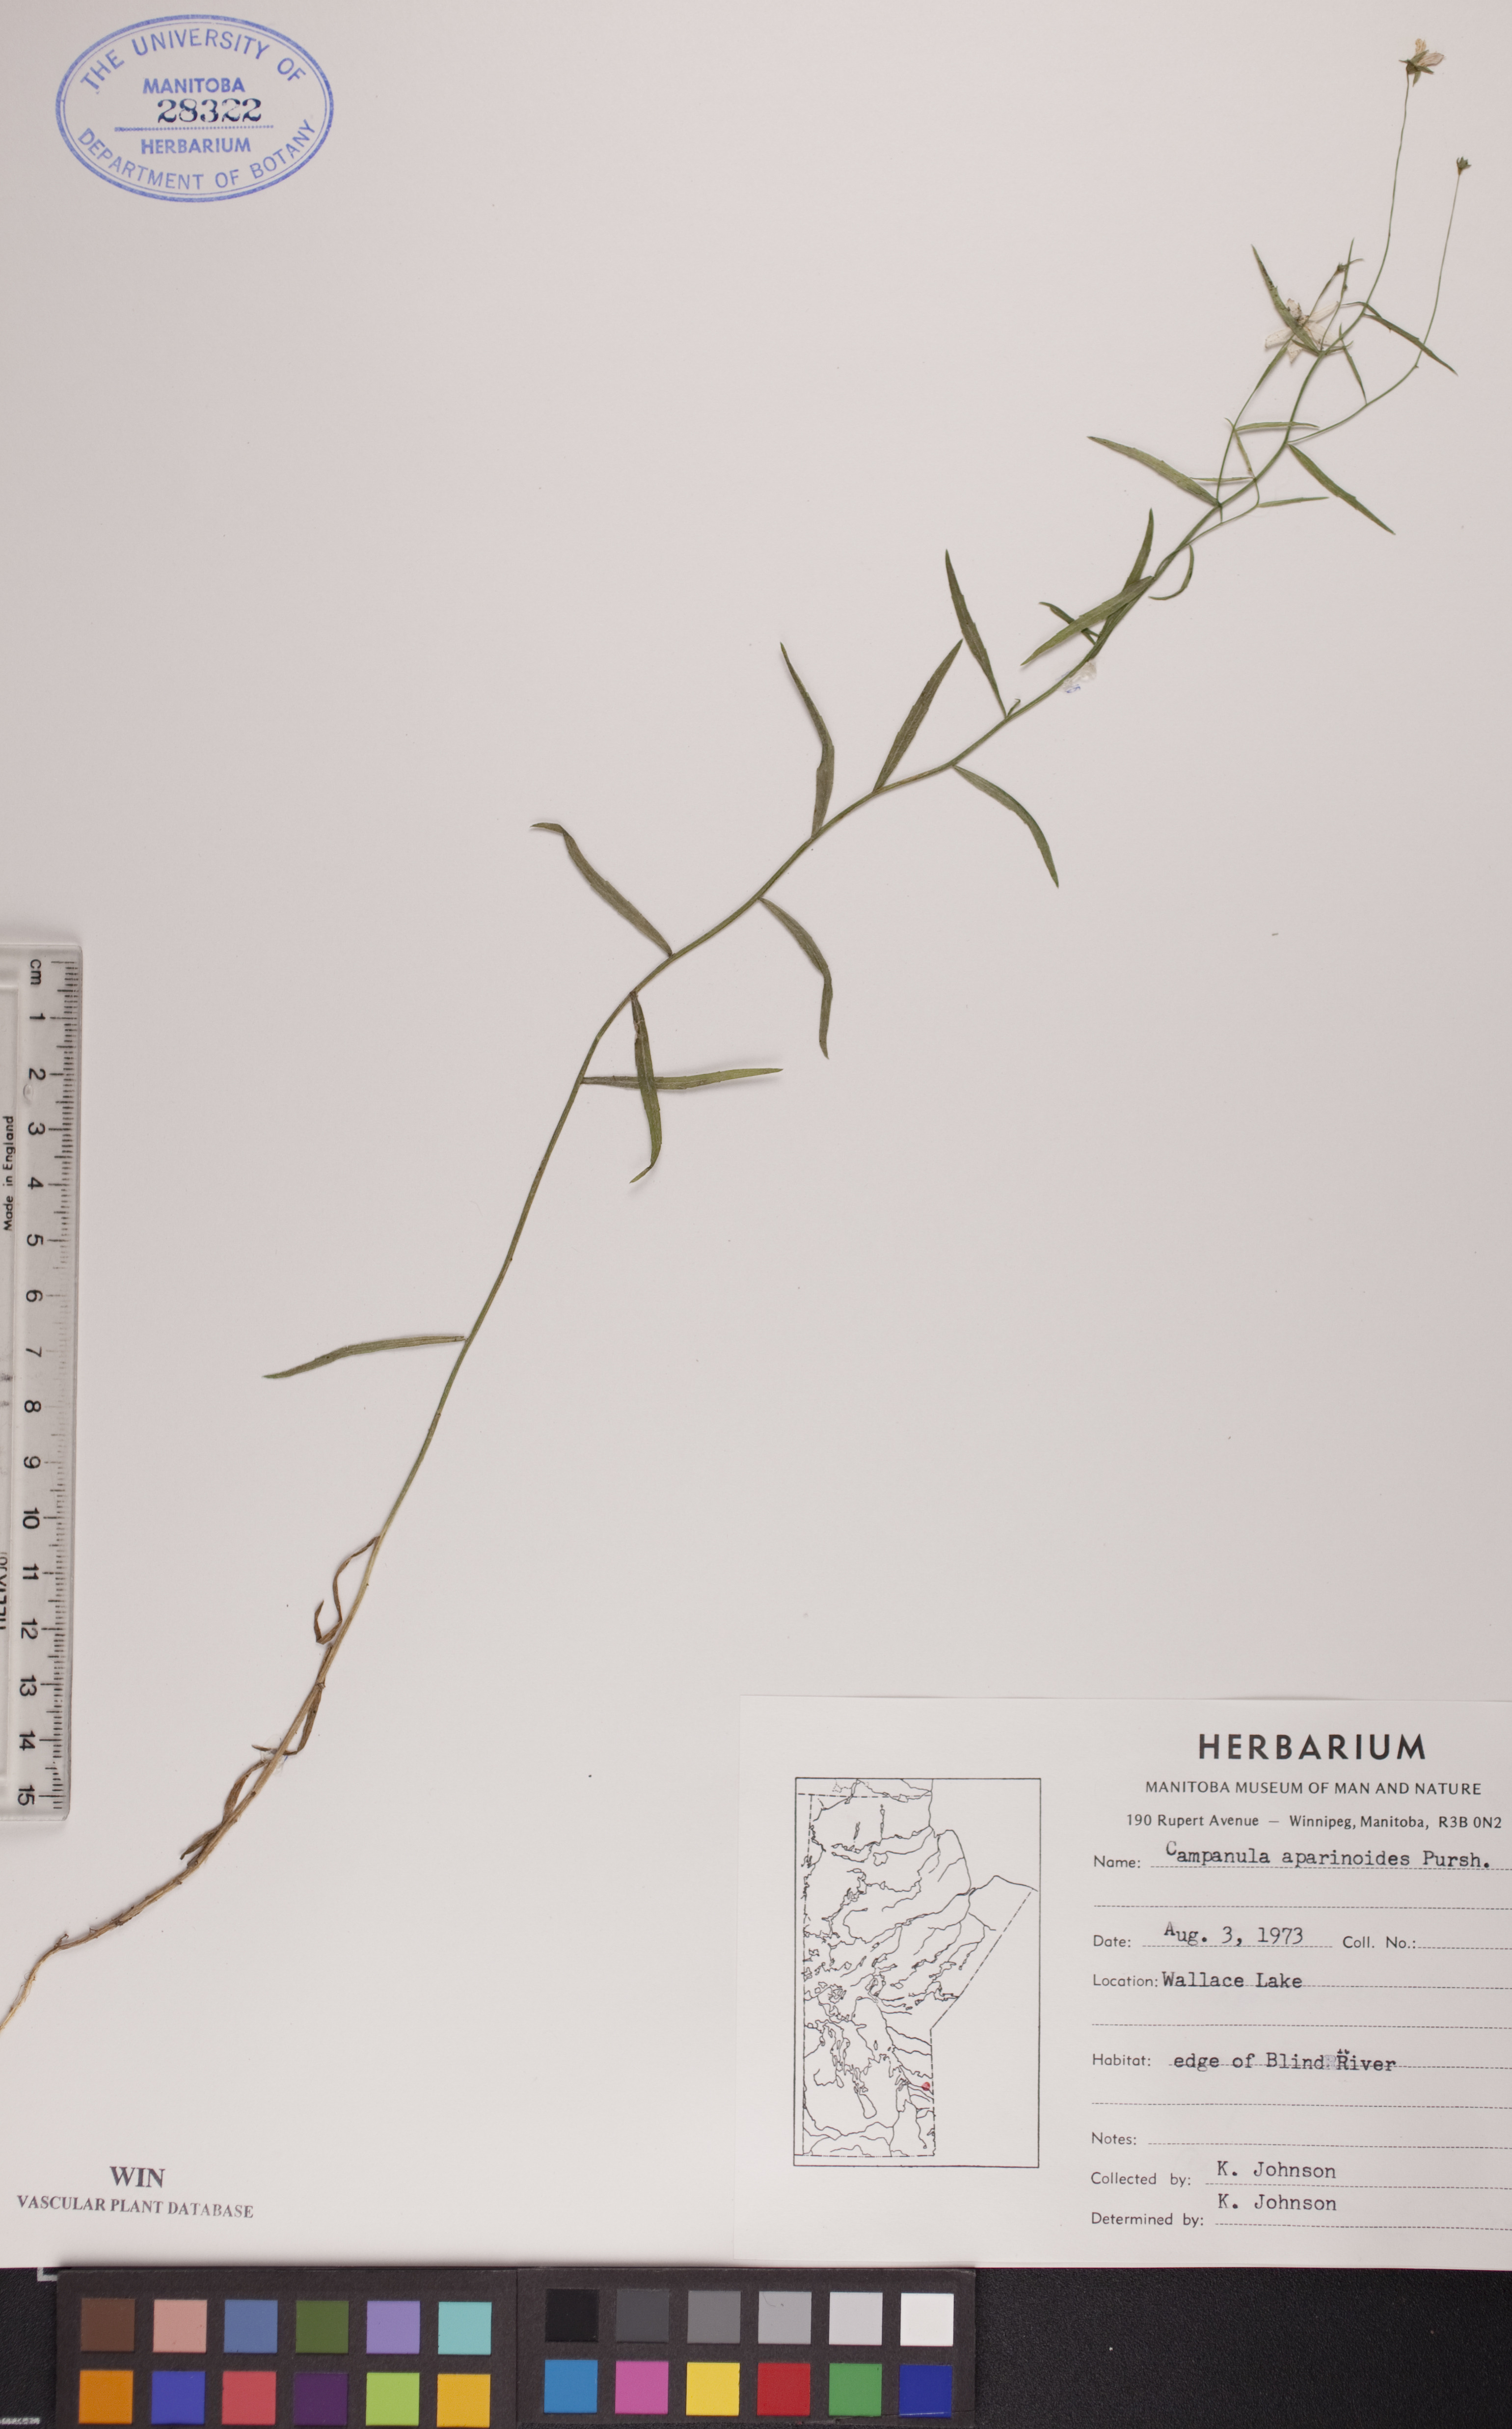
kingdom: Plantae
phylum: Tracheophyta
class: Magnoliopsida
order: Asterales
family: Campanulaceae
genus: Palustricodon
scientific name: Palustricodon aparinoides
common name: Bedstraw bellflower
